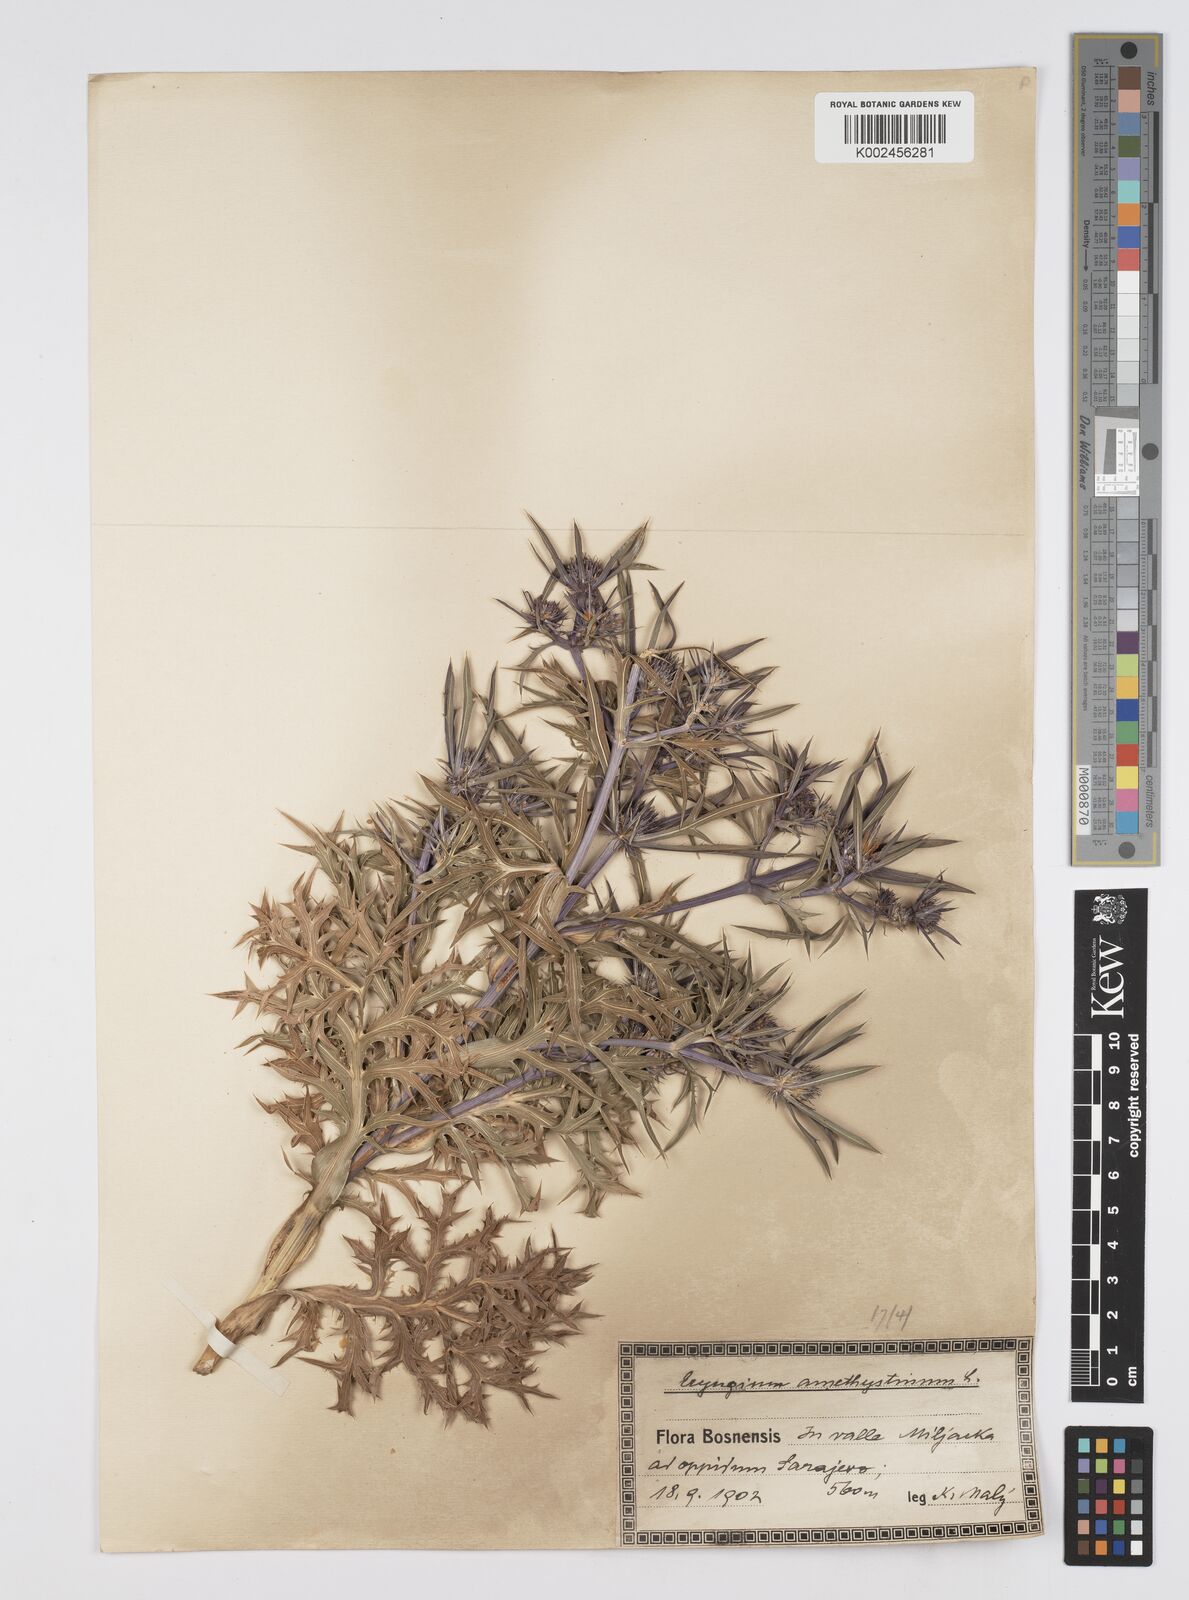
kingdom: Plantae
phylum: Tracheophyta
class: Magnoliopsida
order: Apiales
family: Apiaceae
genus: Eryngium
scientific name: Eryngium amethystinum
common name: Amethyst eryngo
